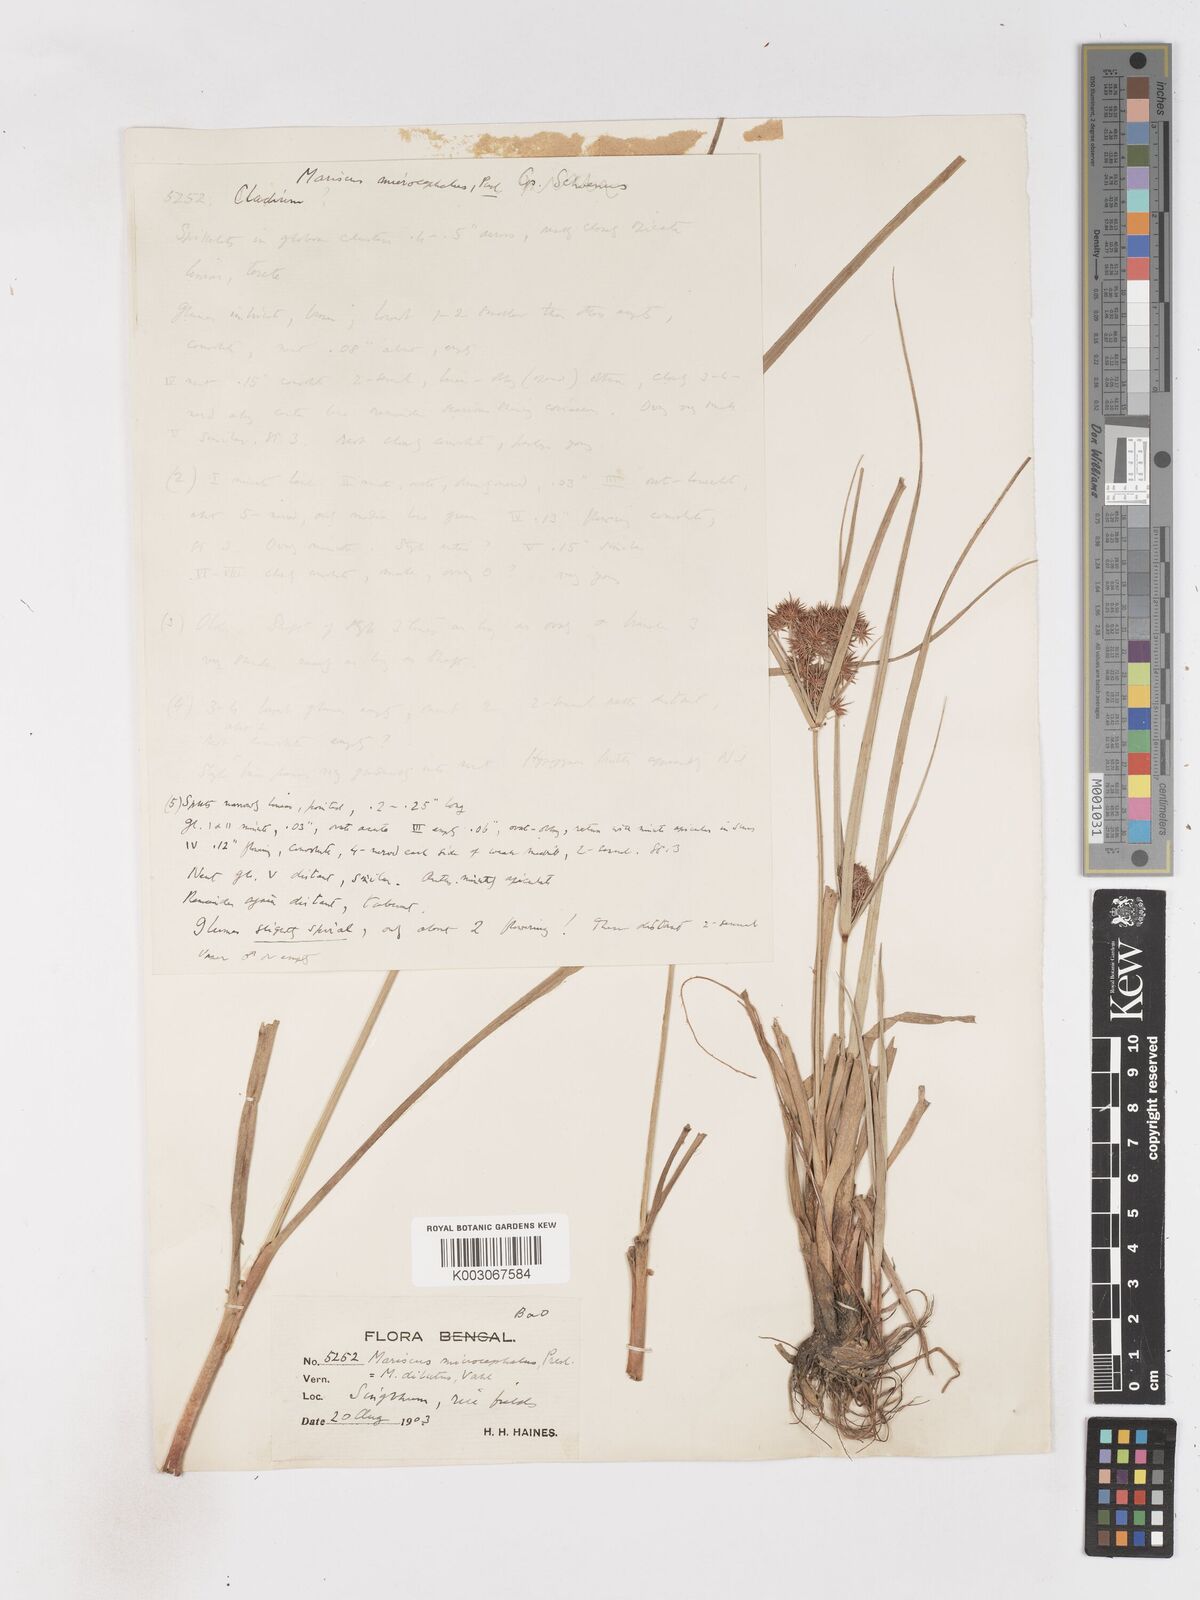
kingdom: Plantae
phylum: Tracheophyta
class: Liliopsida
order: Poales
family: Cyperaceae
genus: Cyperus
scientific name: Cyperus compactus
